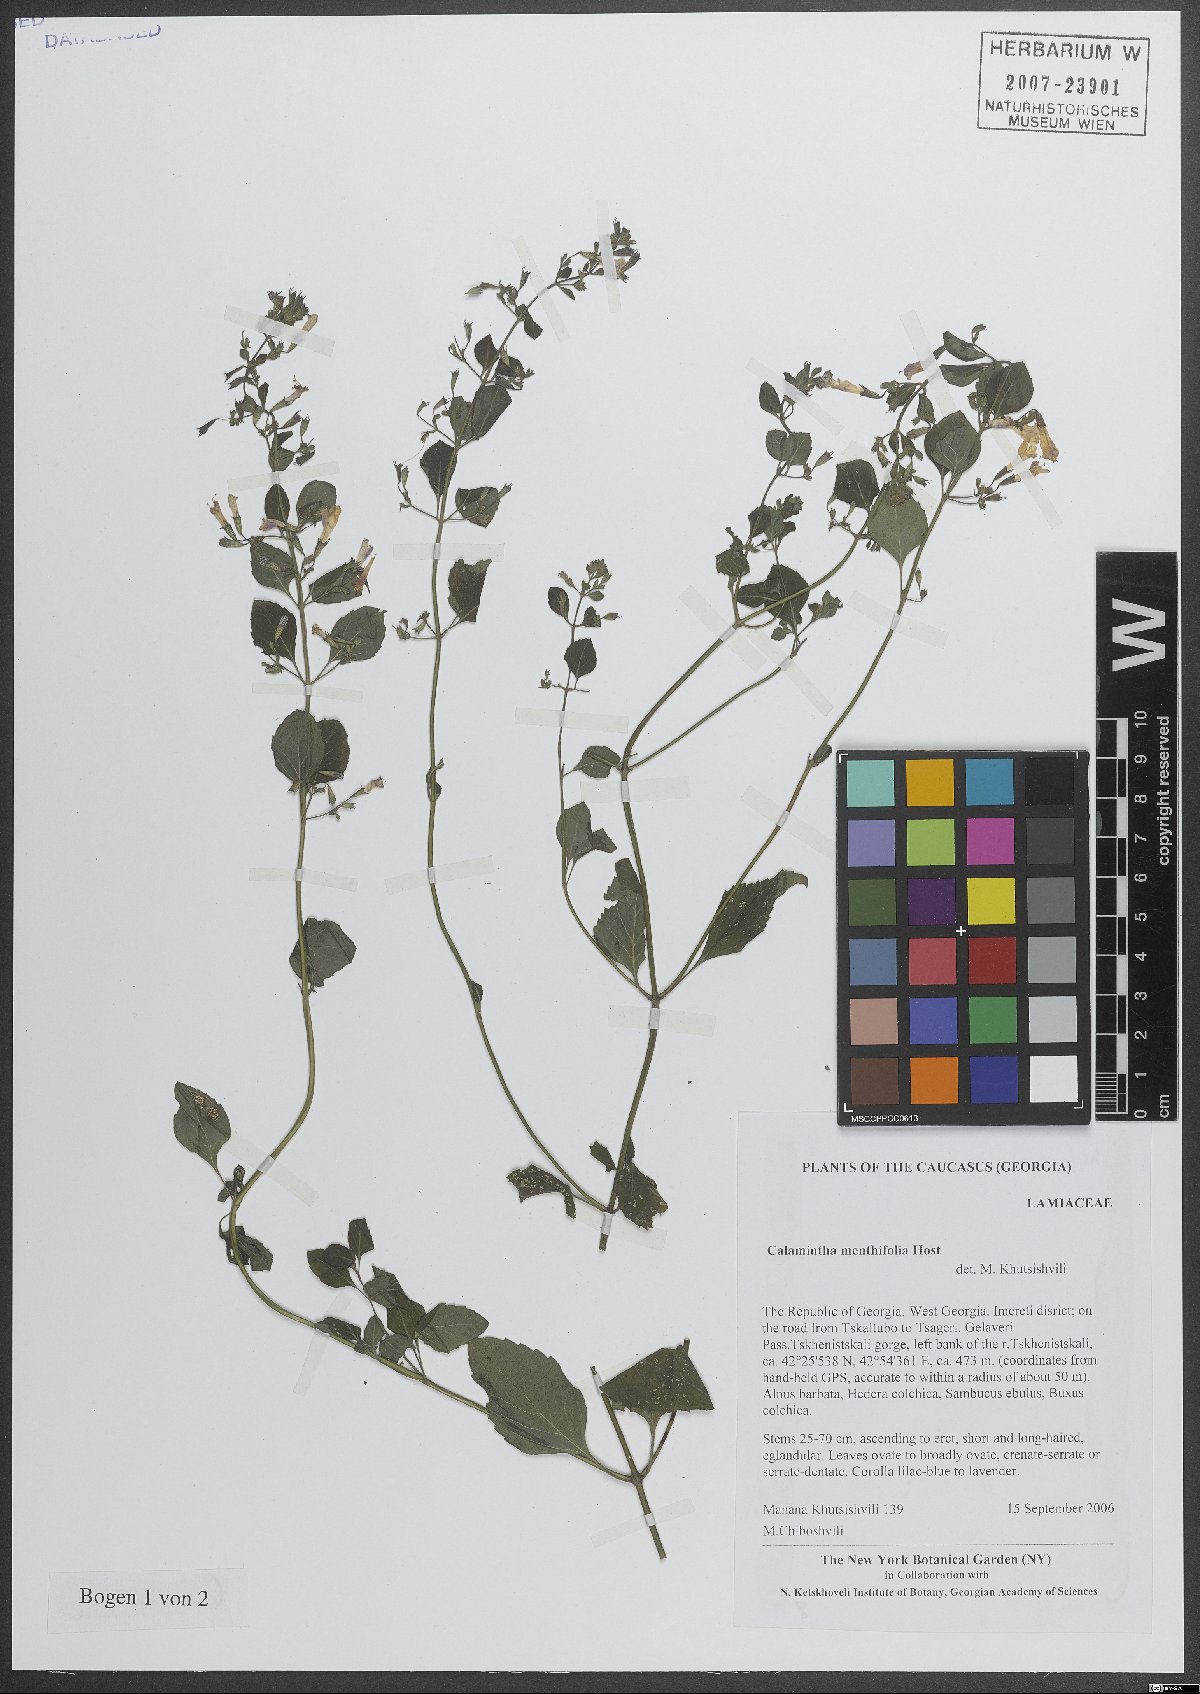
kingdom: Plantae
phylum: Tracheophyta
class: Magnoliopsida
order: Lamiales
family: Lamiaceae
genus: Clinopodium
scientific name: Clinopodium menthifolium
